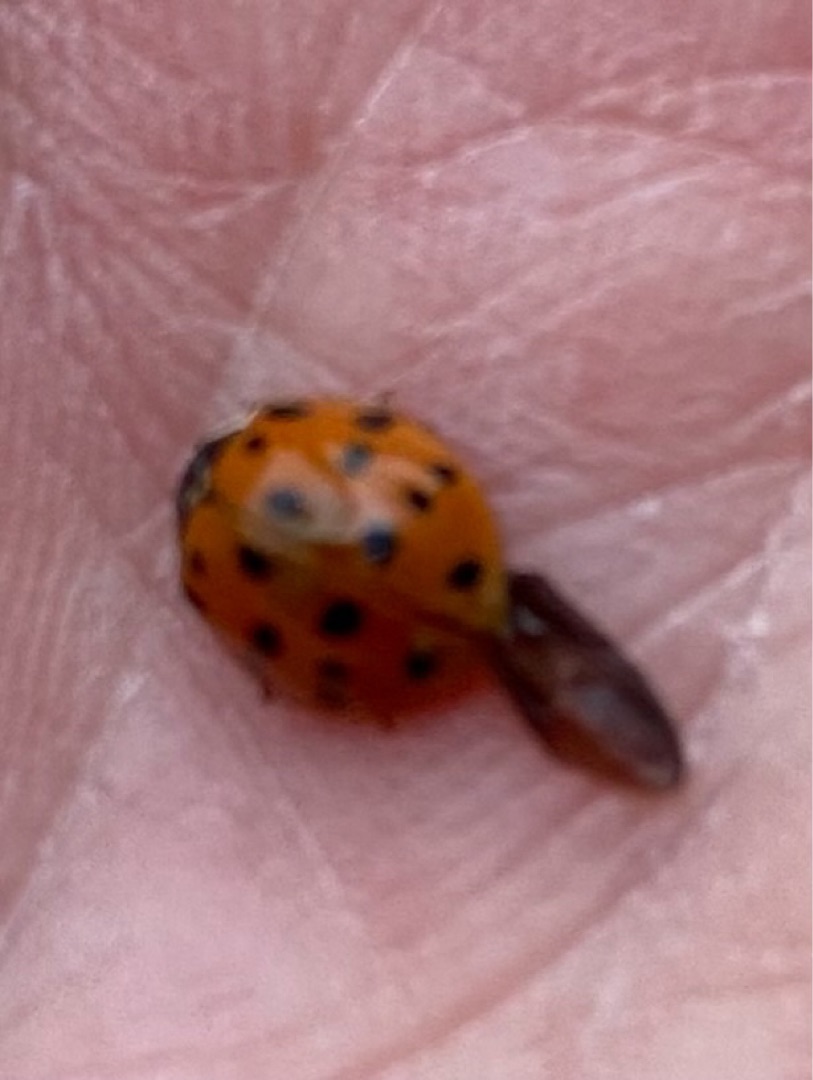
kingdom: Animalia
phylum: Arthropoda
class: Insecta
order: Coleoptera
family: Coccinellidae
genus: Harmonia
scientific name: Harmonia axyridis
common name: Harlekinmariehøne
